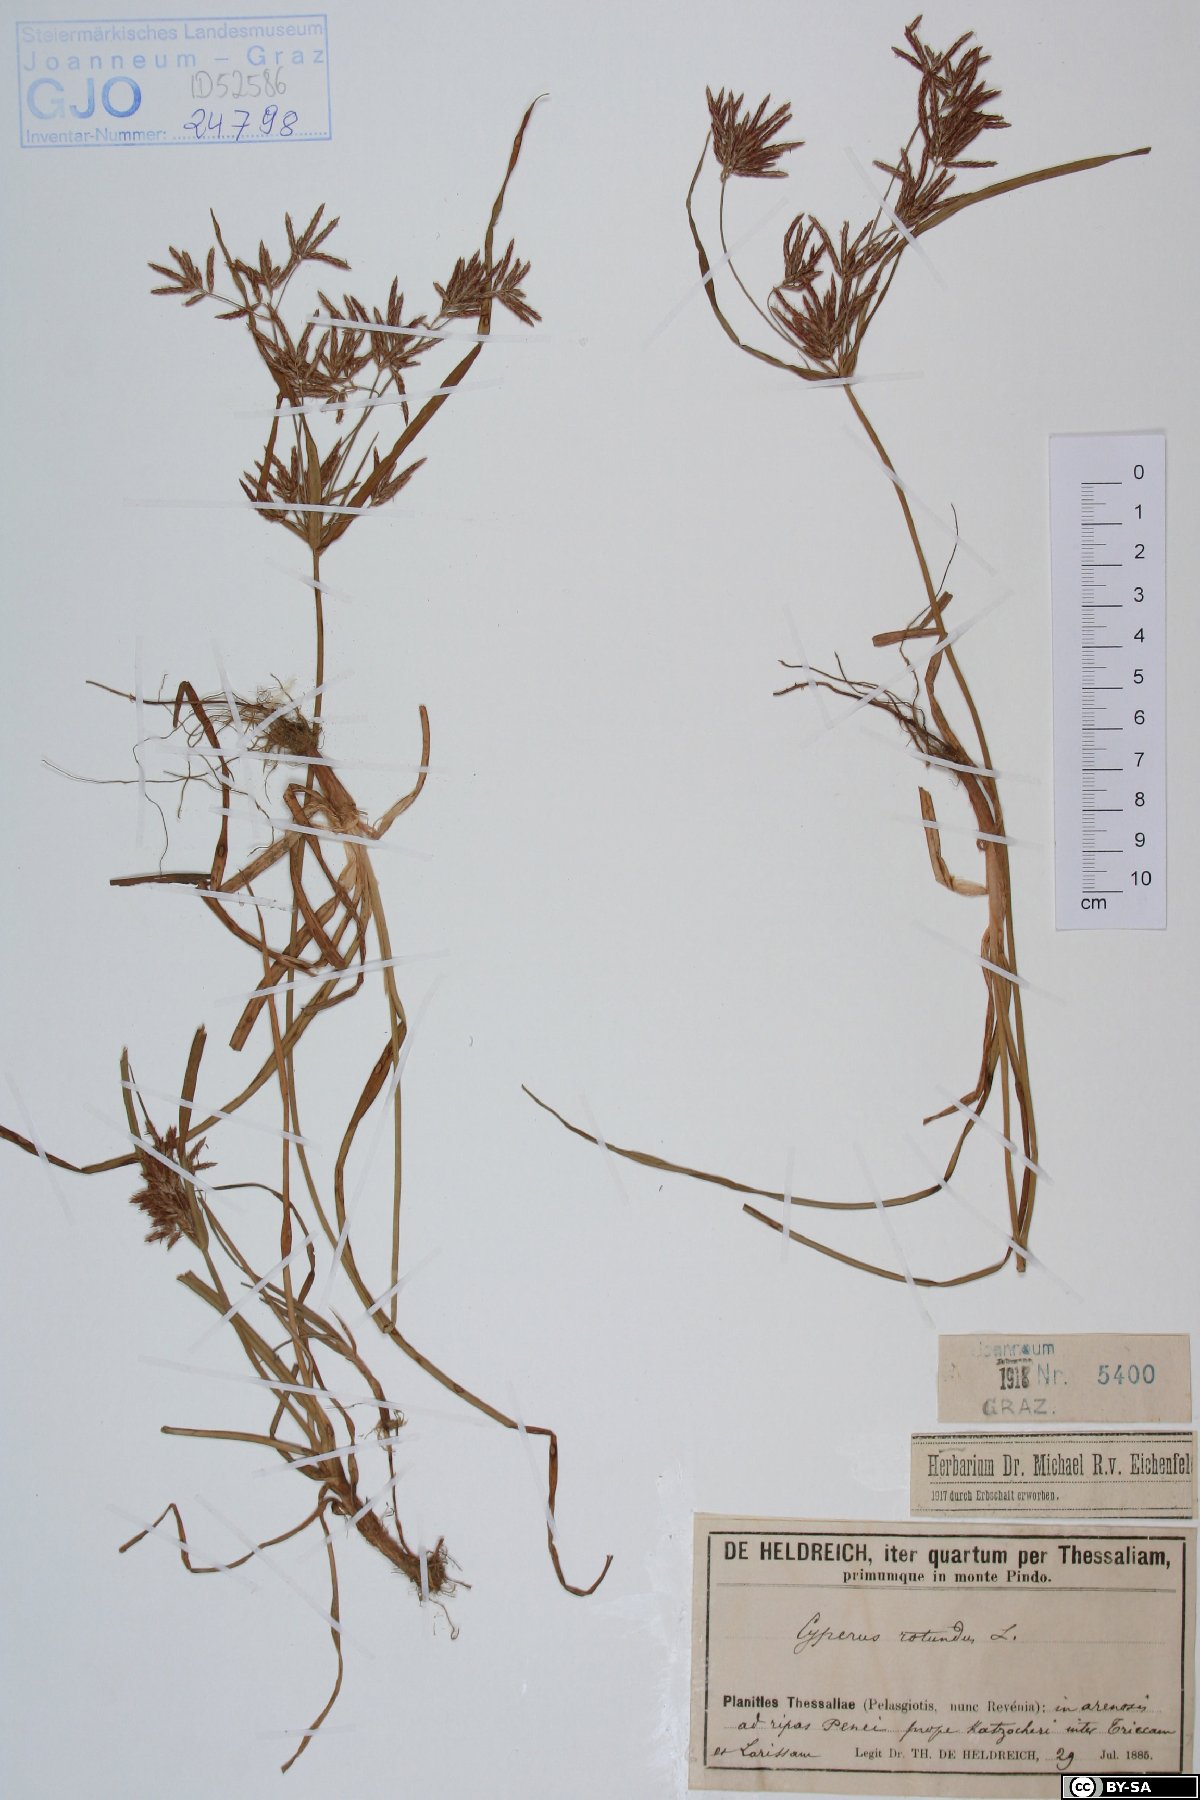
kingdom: Plantae
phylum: Tracheophyta
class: Liliopsida
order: Poales
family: Cyperaceae
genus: Cyperus
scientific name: Cyperus rotundus
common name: Nutgrass
